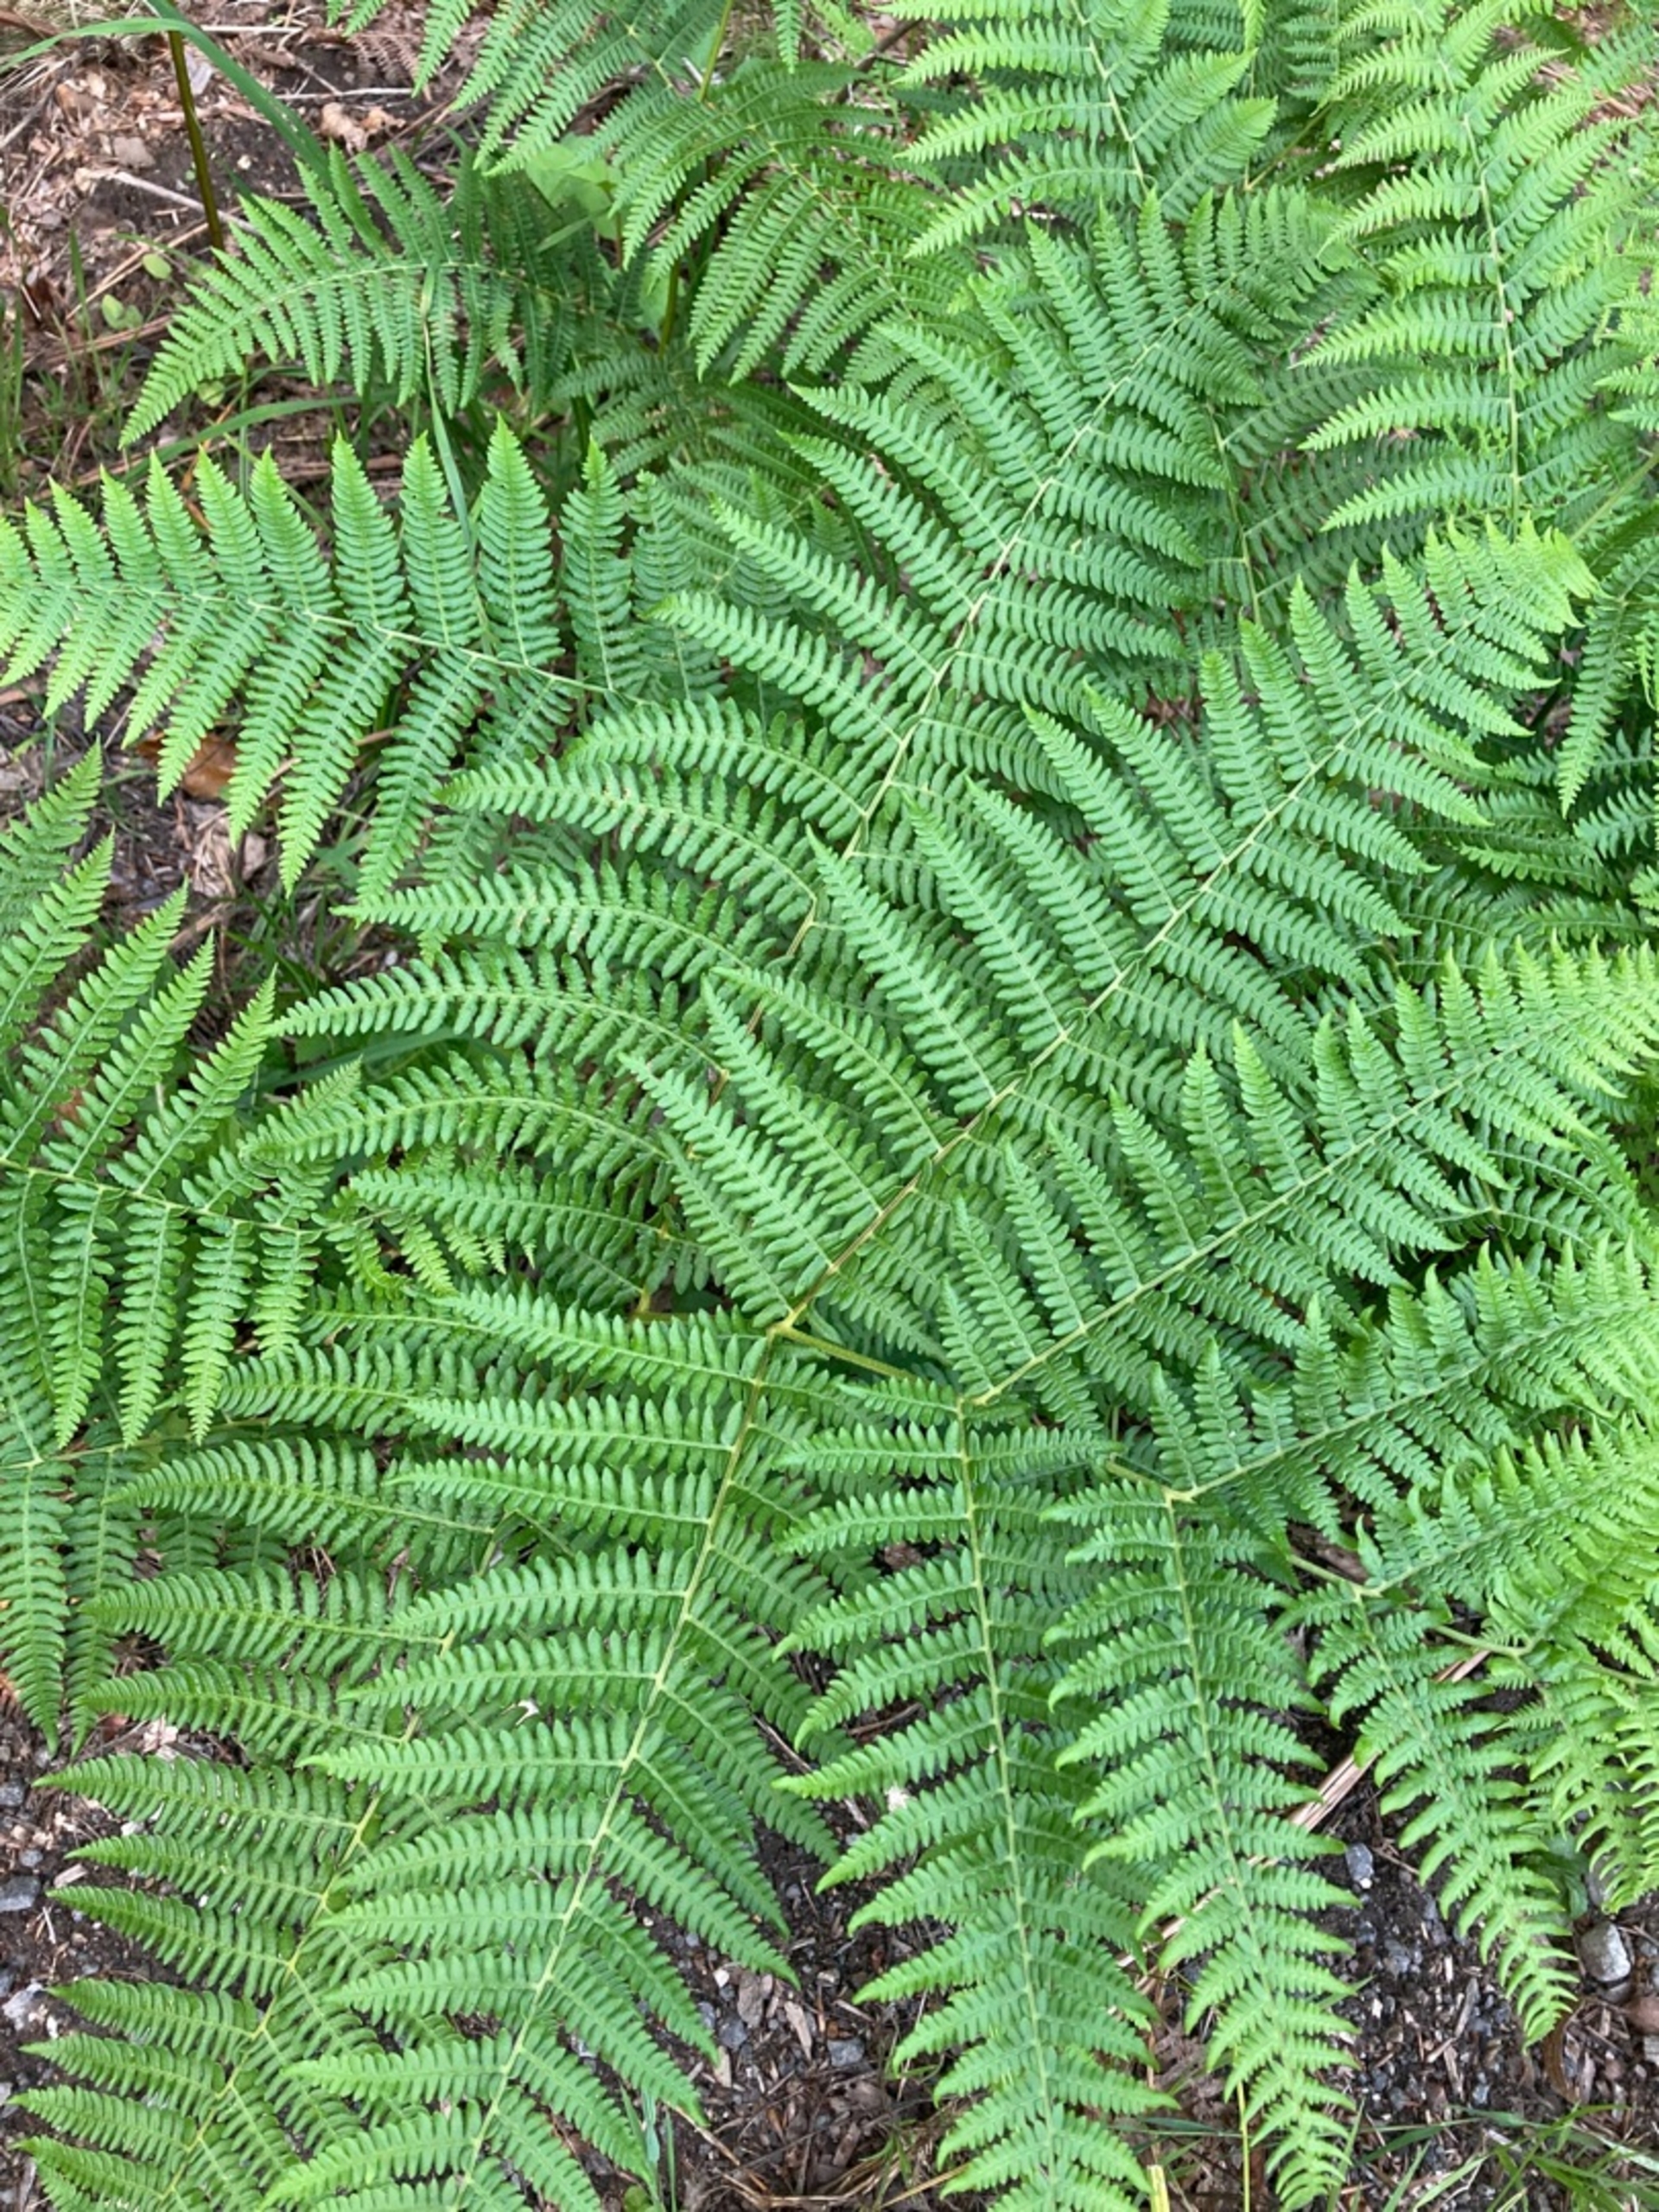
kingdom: Plantae
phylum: Tracheophyta
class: Polypodiopsida
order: Polypodiales
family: Dennstaedtiaceae
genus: Pteridium
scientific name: Pteridium aquilinum
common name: Ørnebregne
